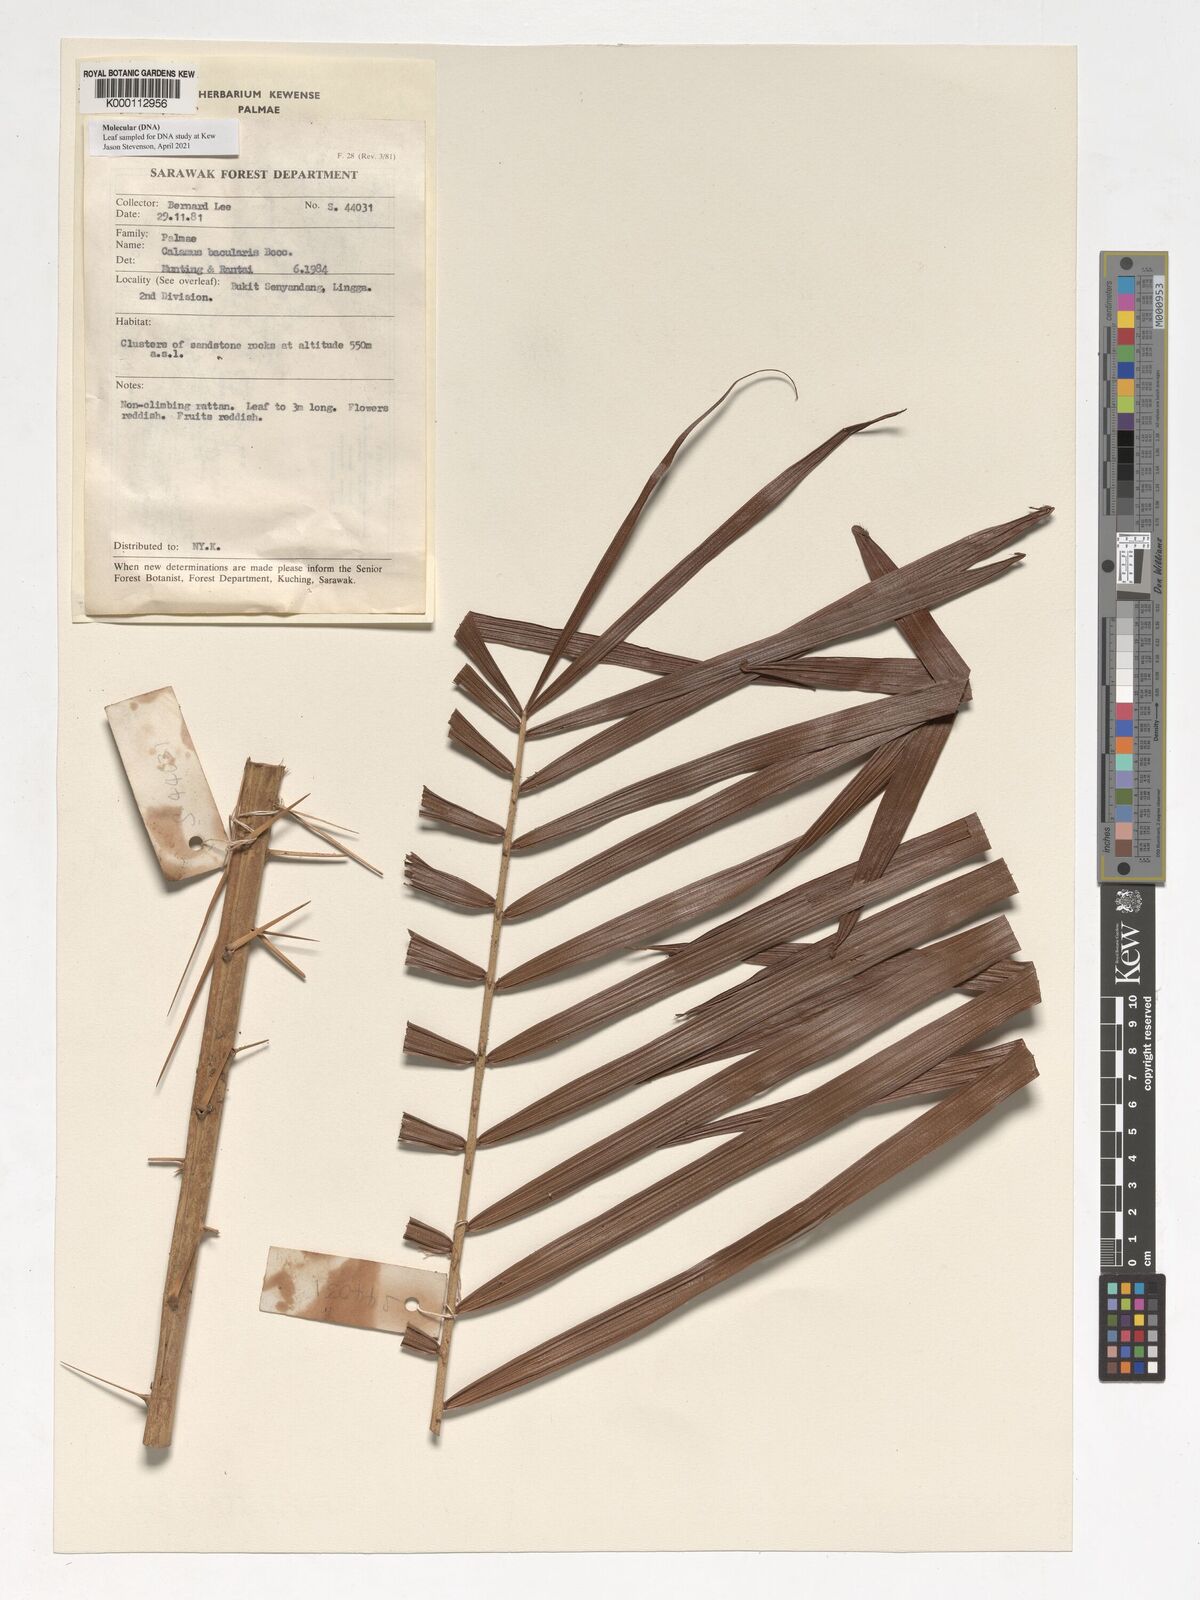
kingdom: Plantae
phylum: Tracheophyta
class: Liliopsida
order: Arecales
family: Arecaceae
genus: Calamus
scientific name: Calamus bacularis
